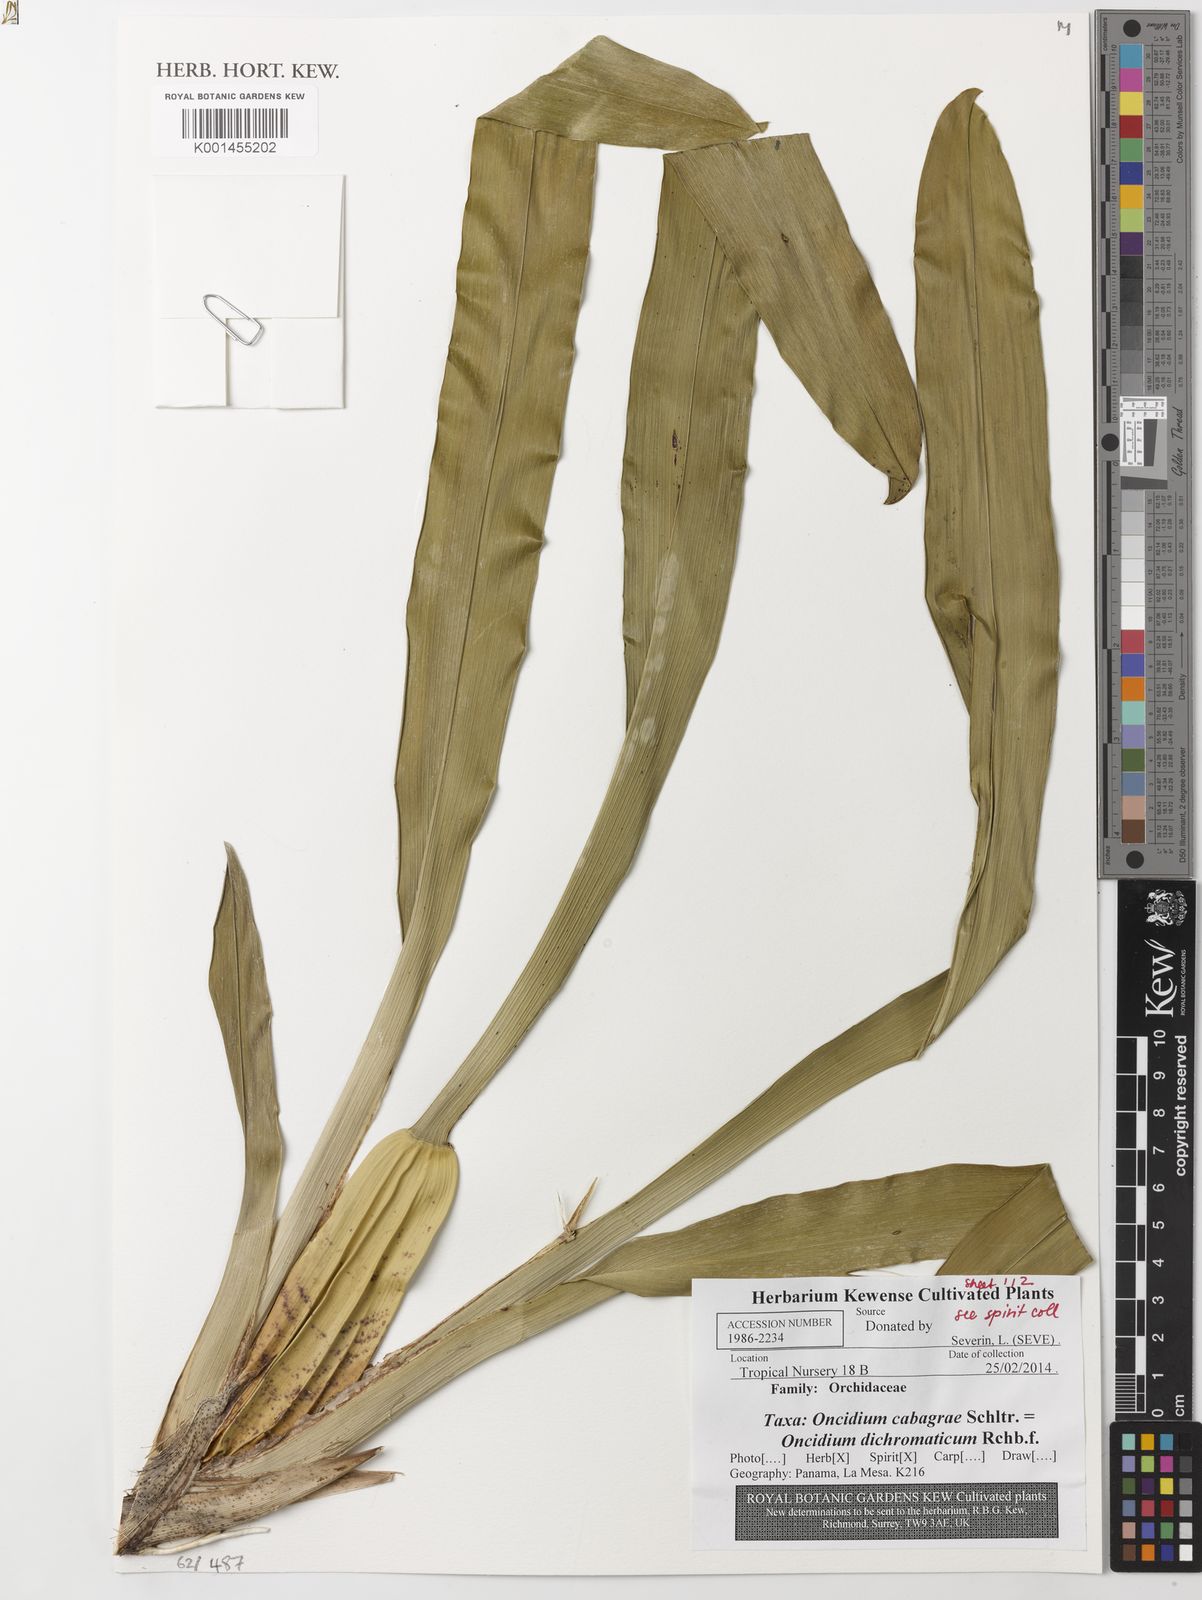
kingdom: Plantae
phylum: Tracheophyta
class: Liliopsida
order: Asparagales
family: Orchidaceae
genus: Oncidium
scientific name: Oncidium dichromaticum
